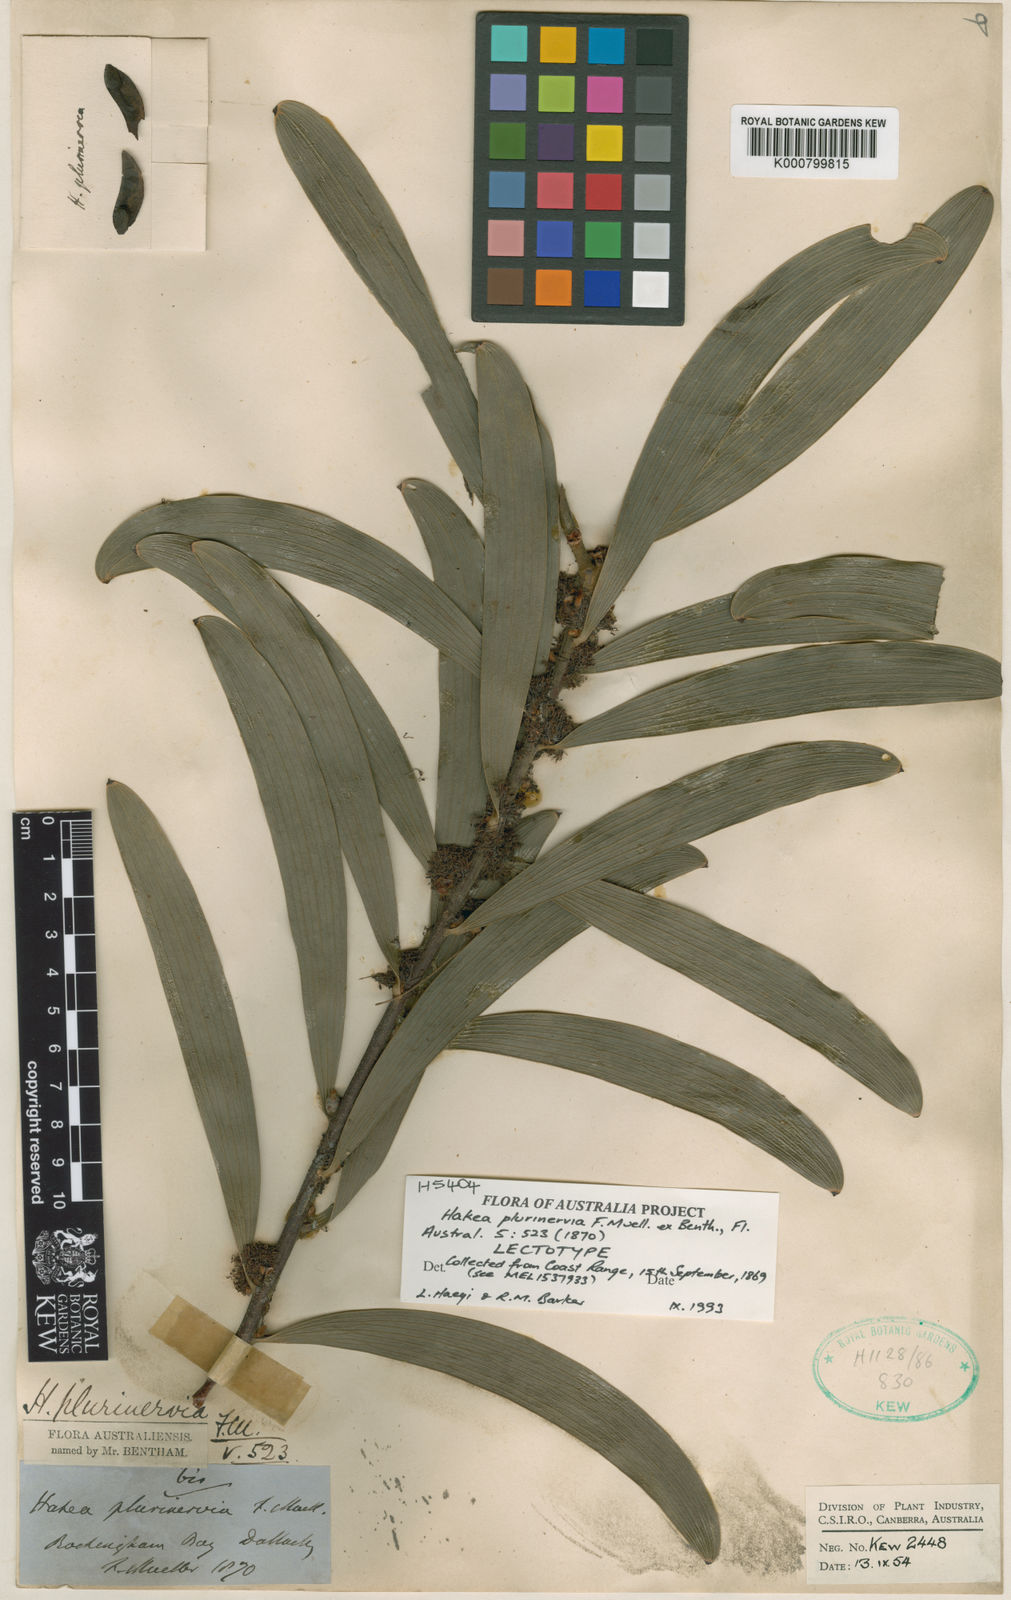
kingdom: Plantae
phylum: Tracheophyta
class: Magnoliopsida
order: Proteales
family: Proteaceae
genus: Hakea
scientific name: Hakea benthamii
